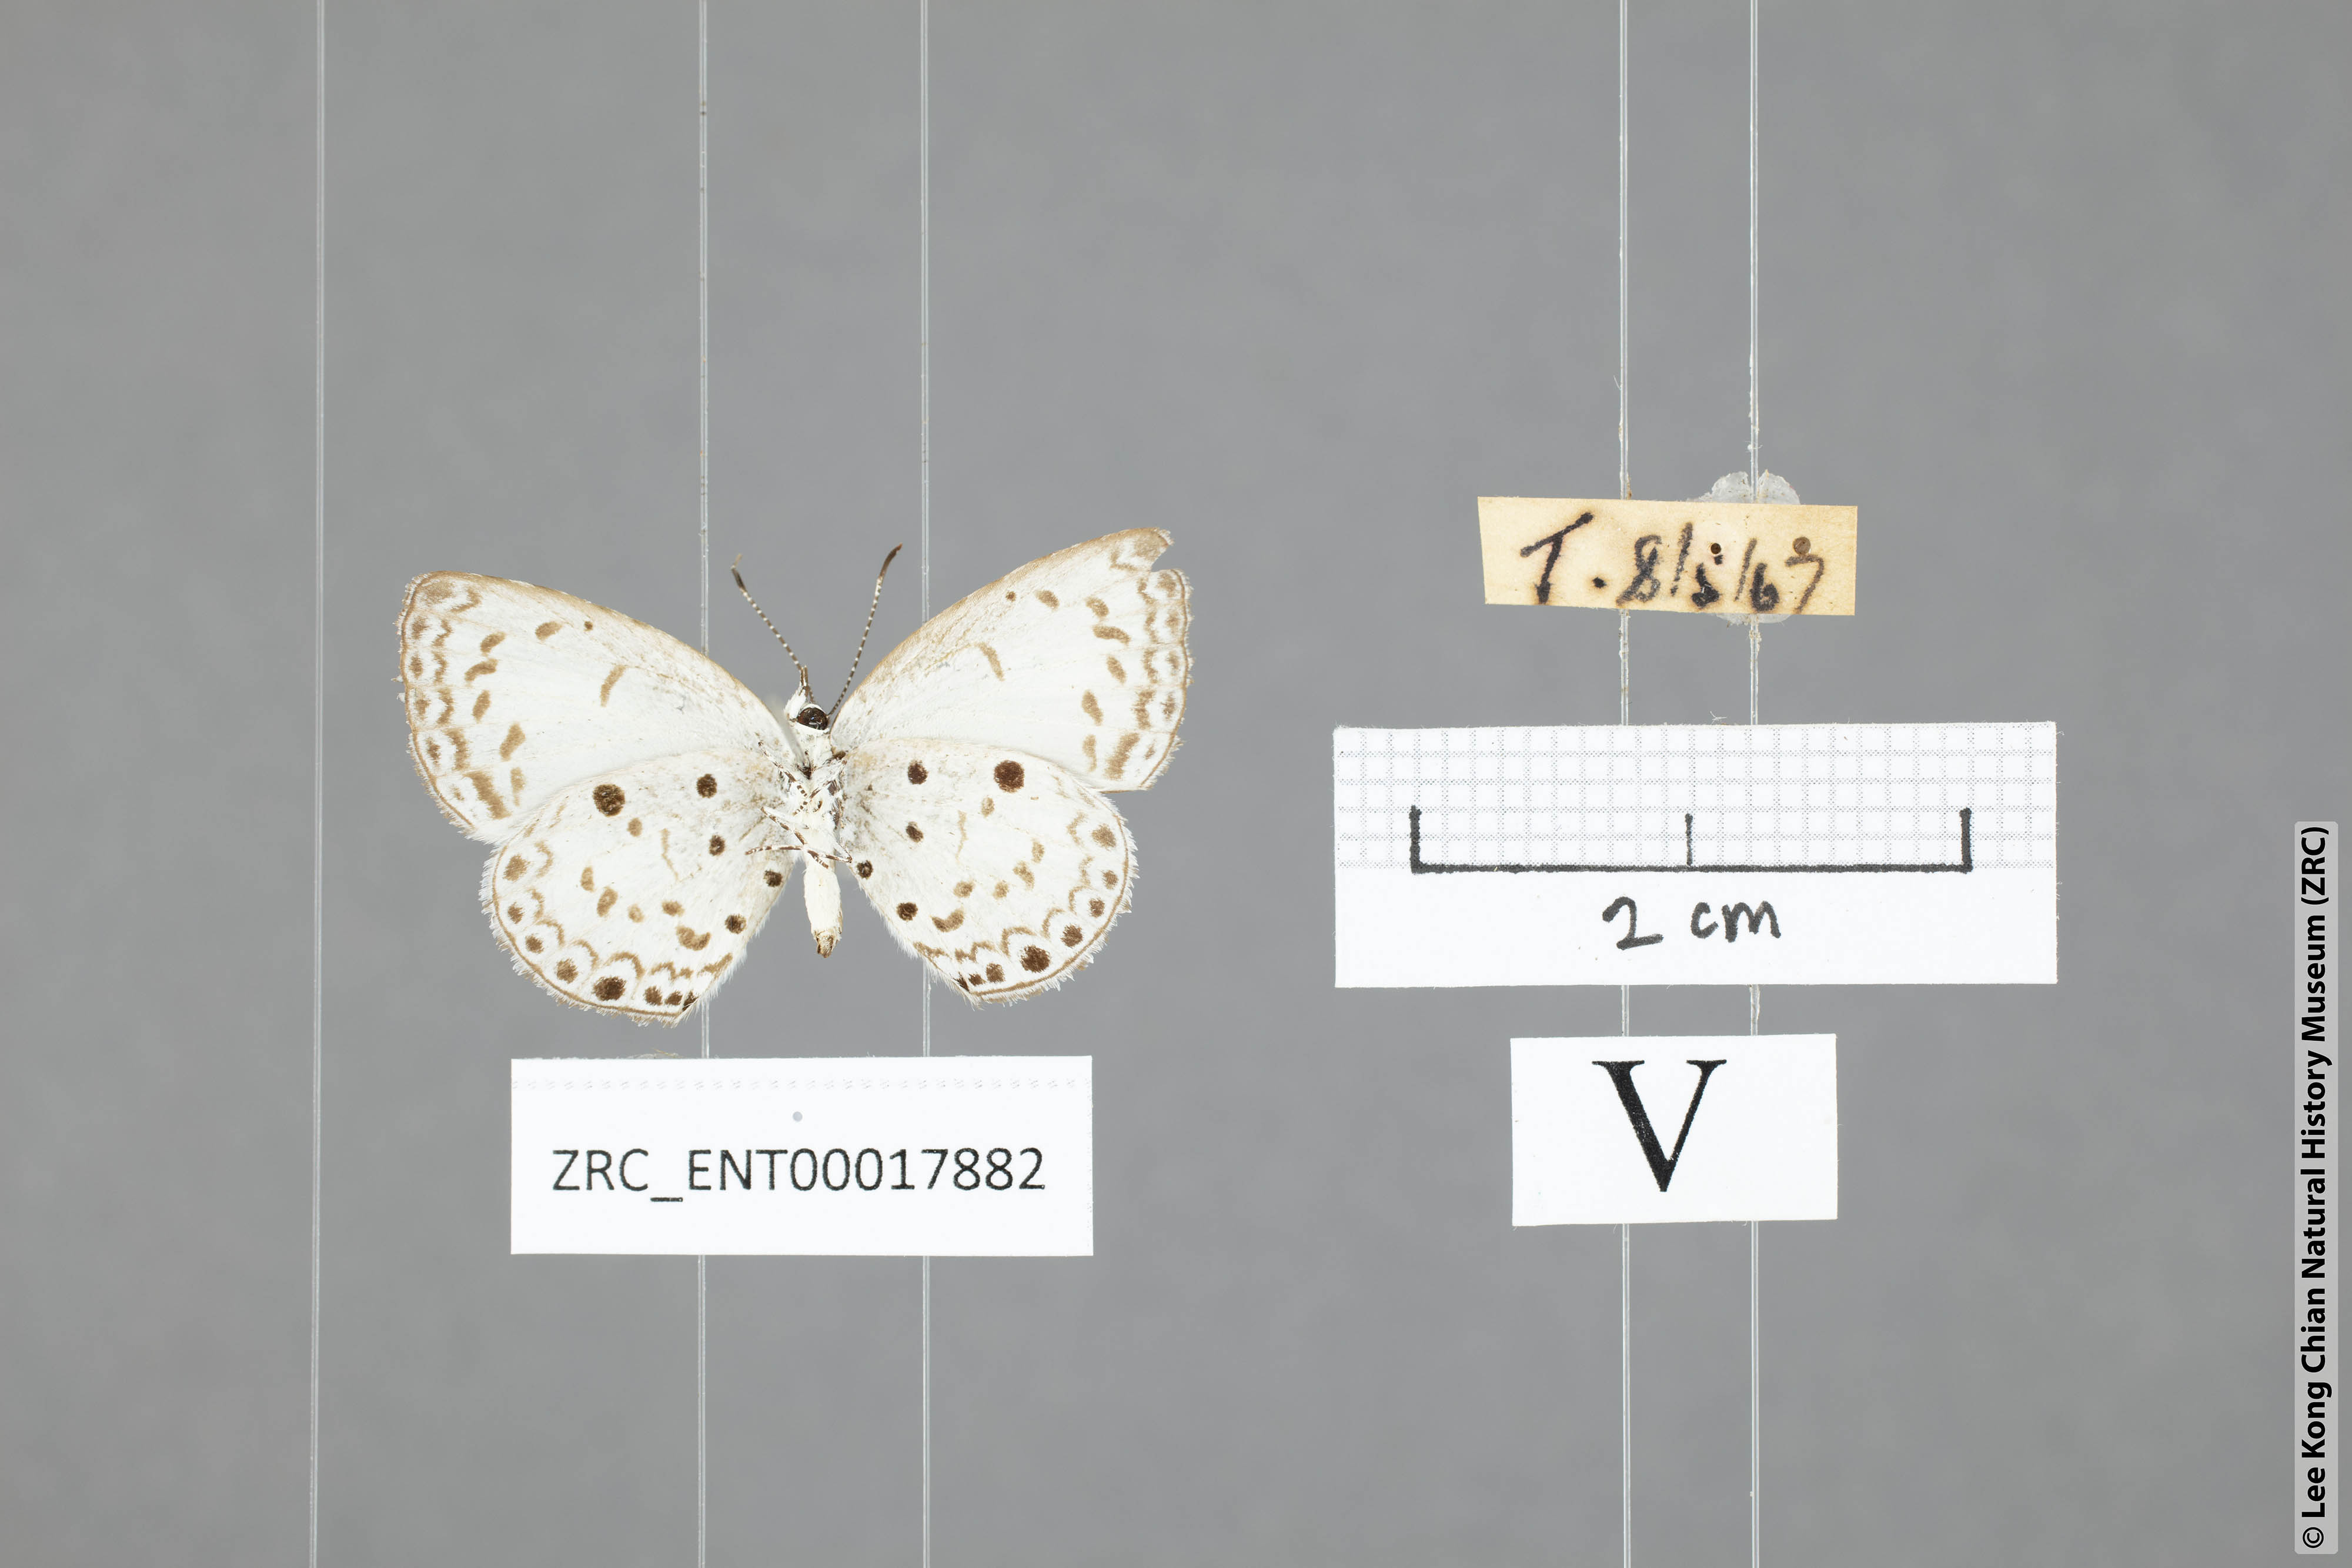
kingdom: Animalia
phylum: Arthropoda
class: Insecta
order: Lepidoptera
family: Lycaenidae
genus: Acytolepis
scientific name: Acytolepis puspa
